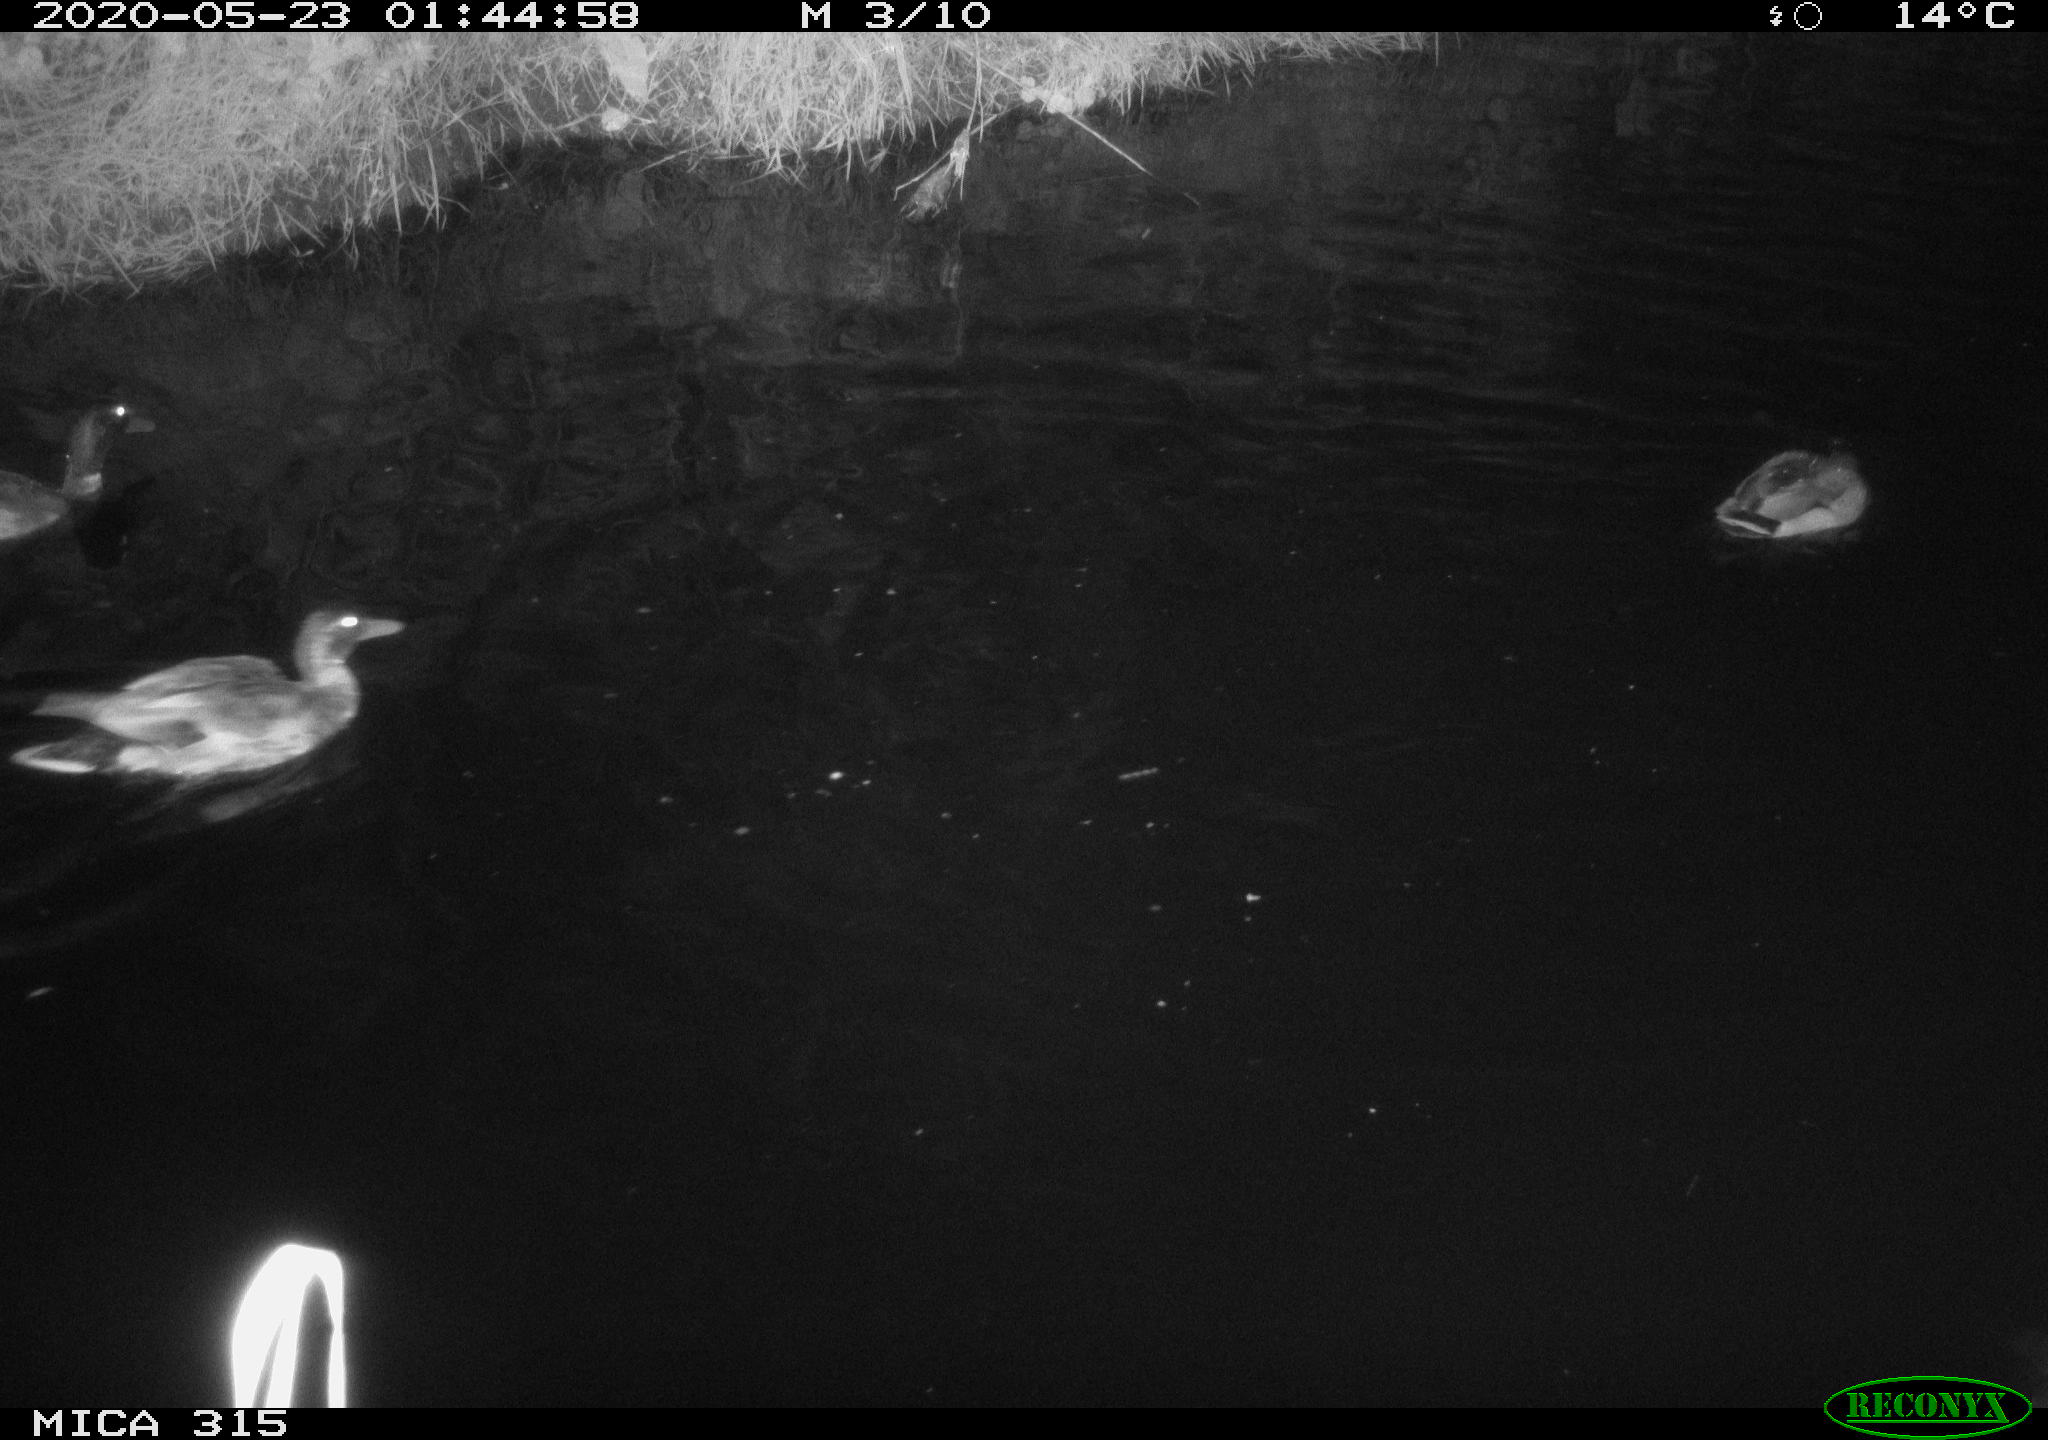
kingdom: Animalia
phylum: Chordata
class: Aves
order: Anseriformes
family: Anatidae
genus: Anas
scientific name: Anas platyrhynchos
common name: Mallard
